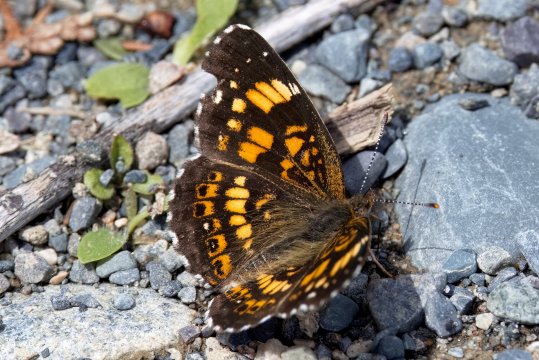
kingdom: Animalia
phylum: Arthropoda
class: Insecta
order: Lepidoptera
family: Nymphalidae
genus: Chlosyne
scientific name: Chlosyne nycteis
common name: Silvery Checkerspot
